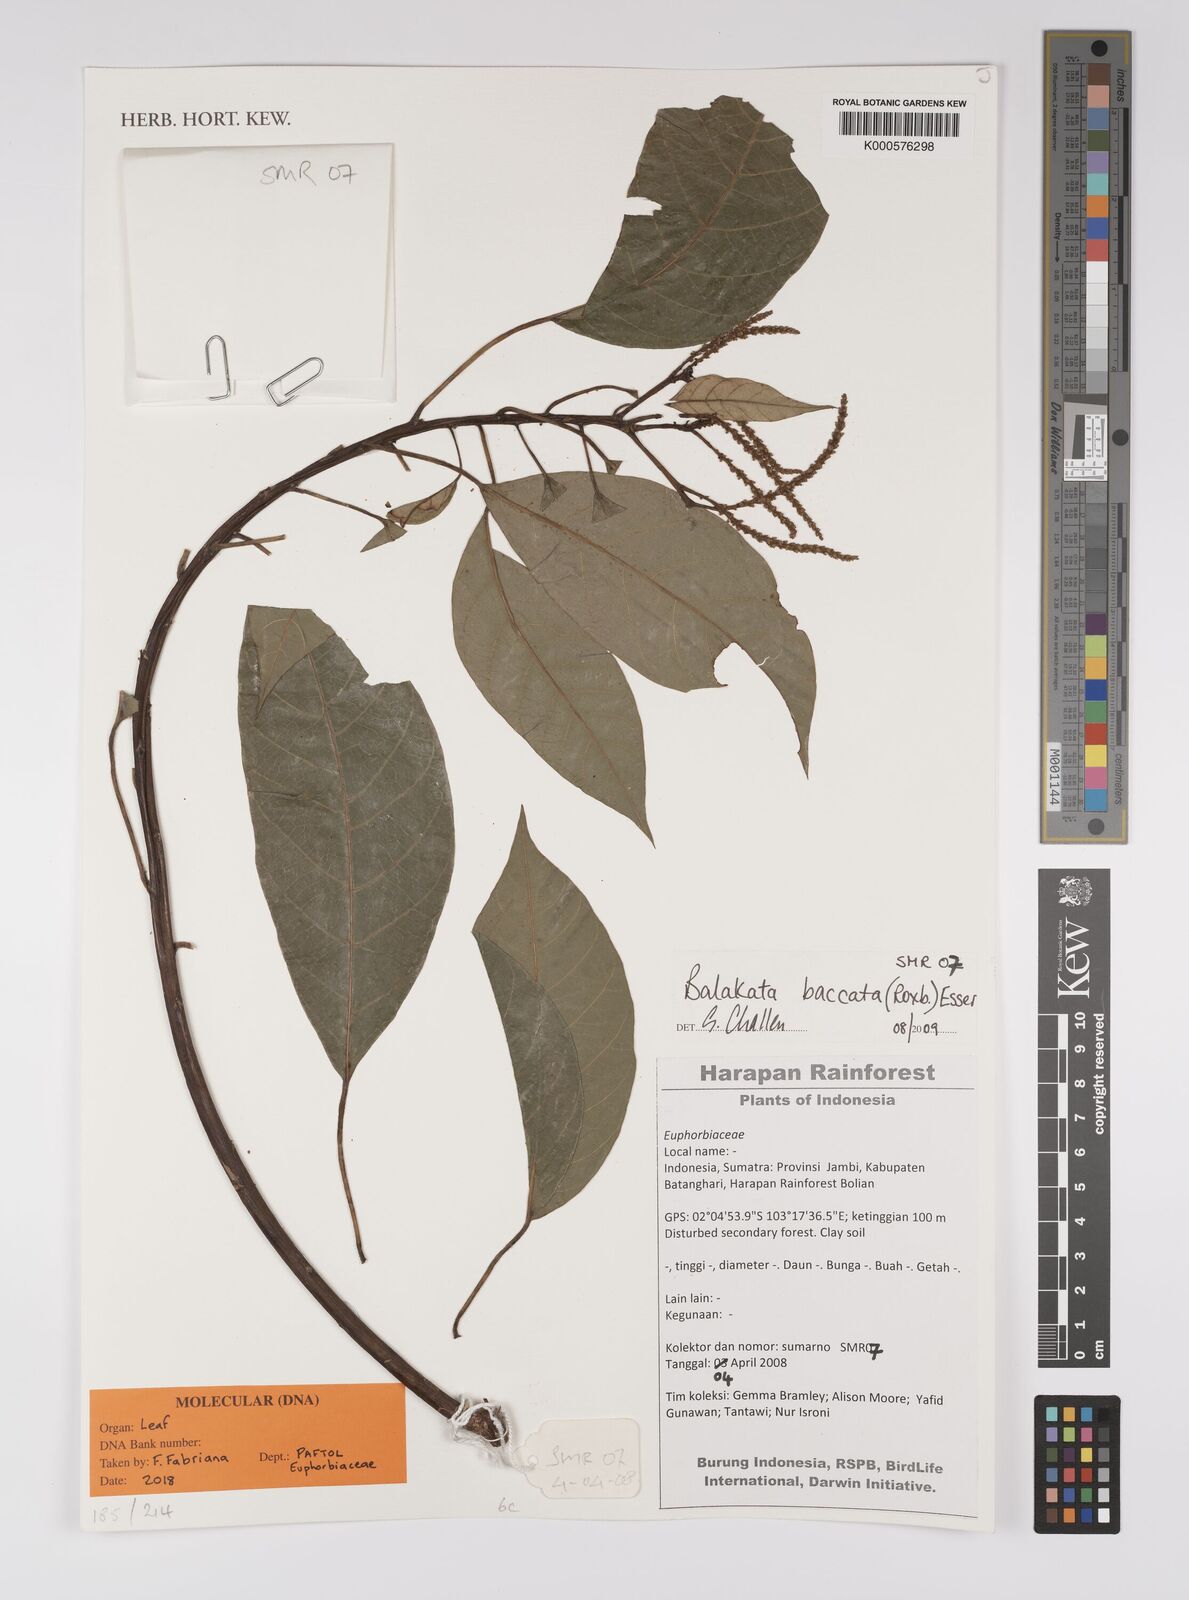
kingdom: Plantae
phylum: Tracheophyta
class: Magnoliopsida
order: Malpighiales
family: Euphorbiaceae
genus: Balakata
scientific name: Balakata baccata
